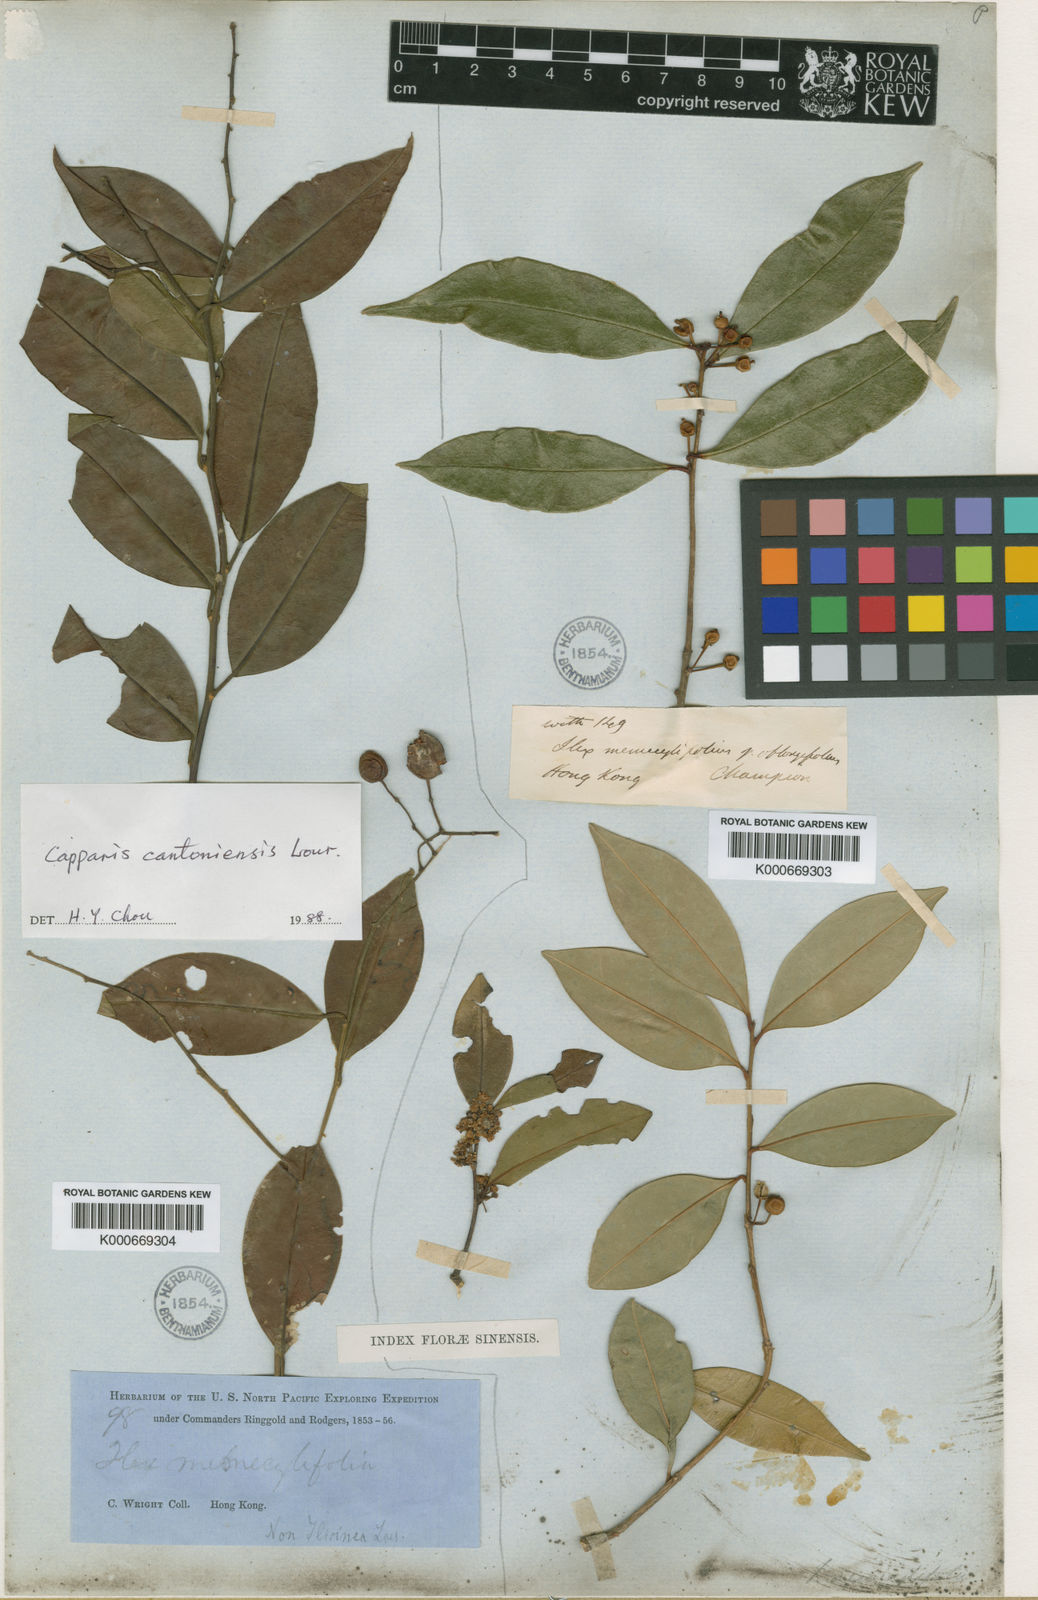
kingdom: Plantae
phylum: Tracheophyta
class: Magnoliopsida
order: Aquifoliales
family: Aquifoliaceae
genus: Ilex
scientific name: Ilex memecylifolia
